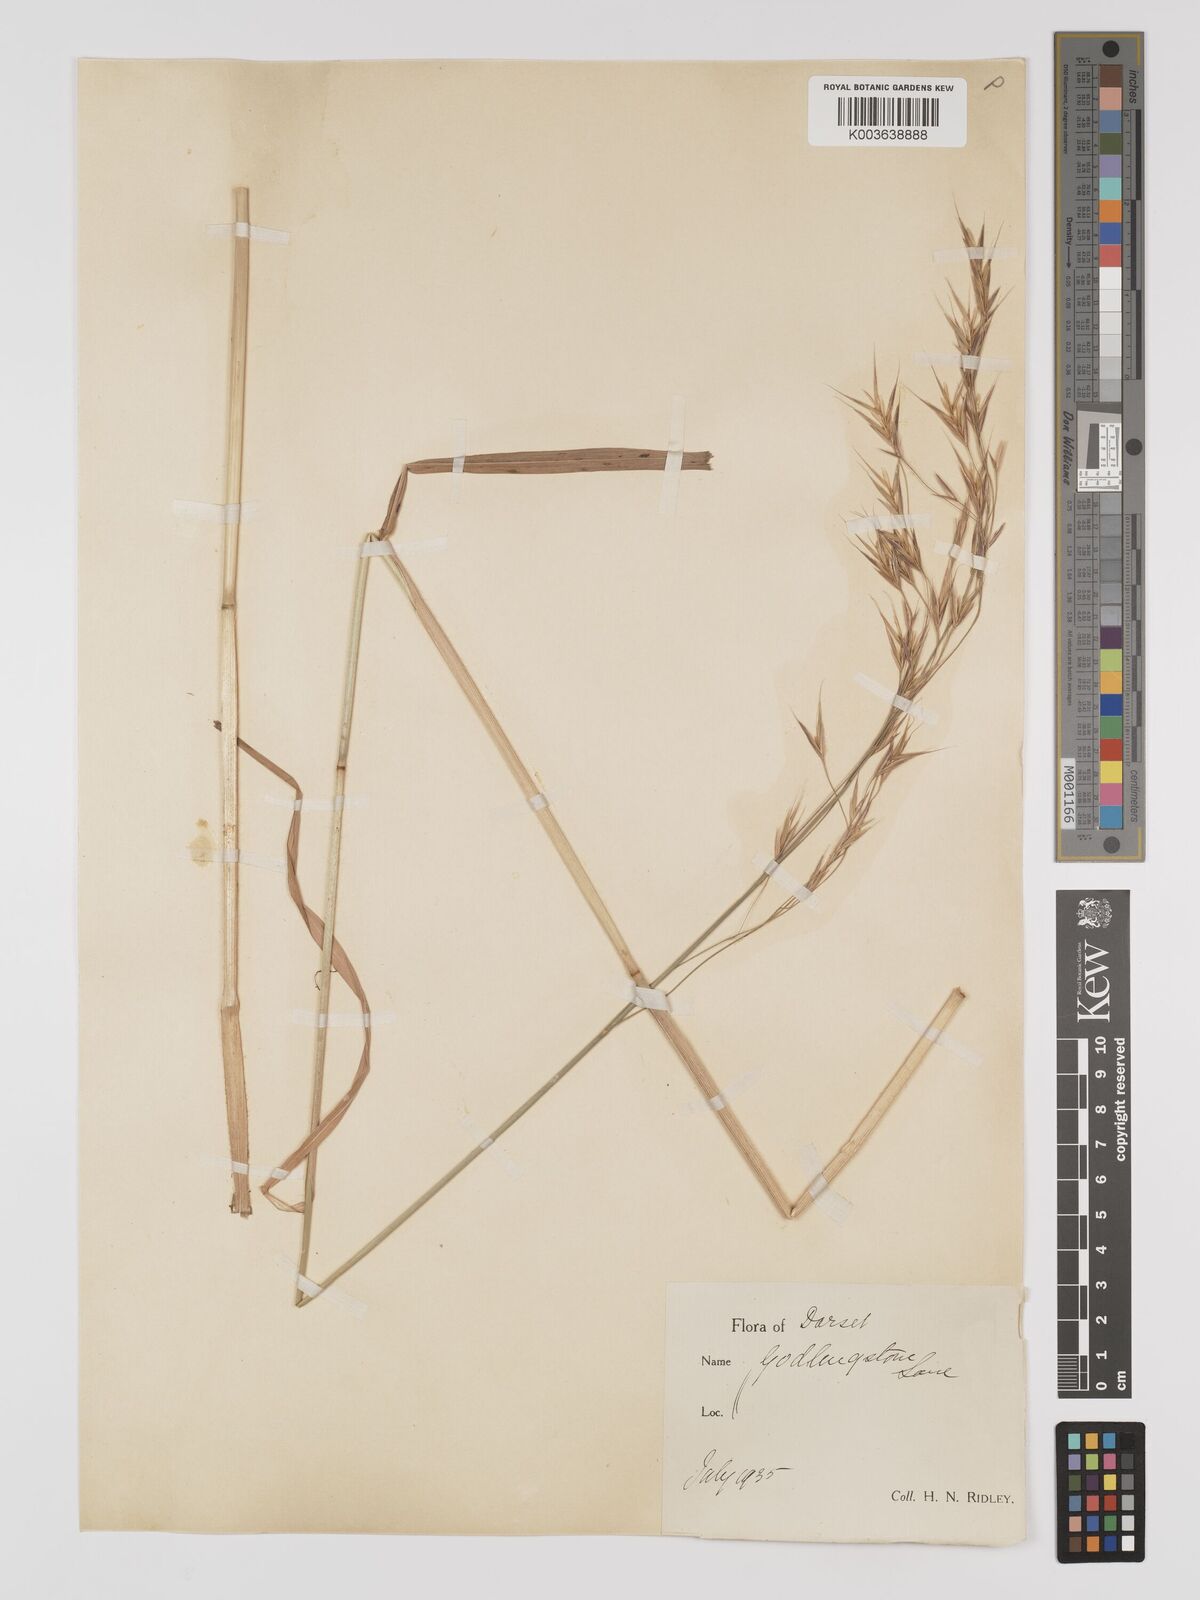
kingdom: Plantae
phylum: Tracheophyta
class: Liliopsida
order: Poales
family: Poaceae
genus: Brachypodium
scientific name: Brachypodium retusum
